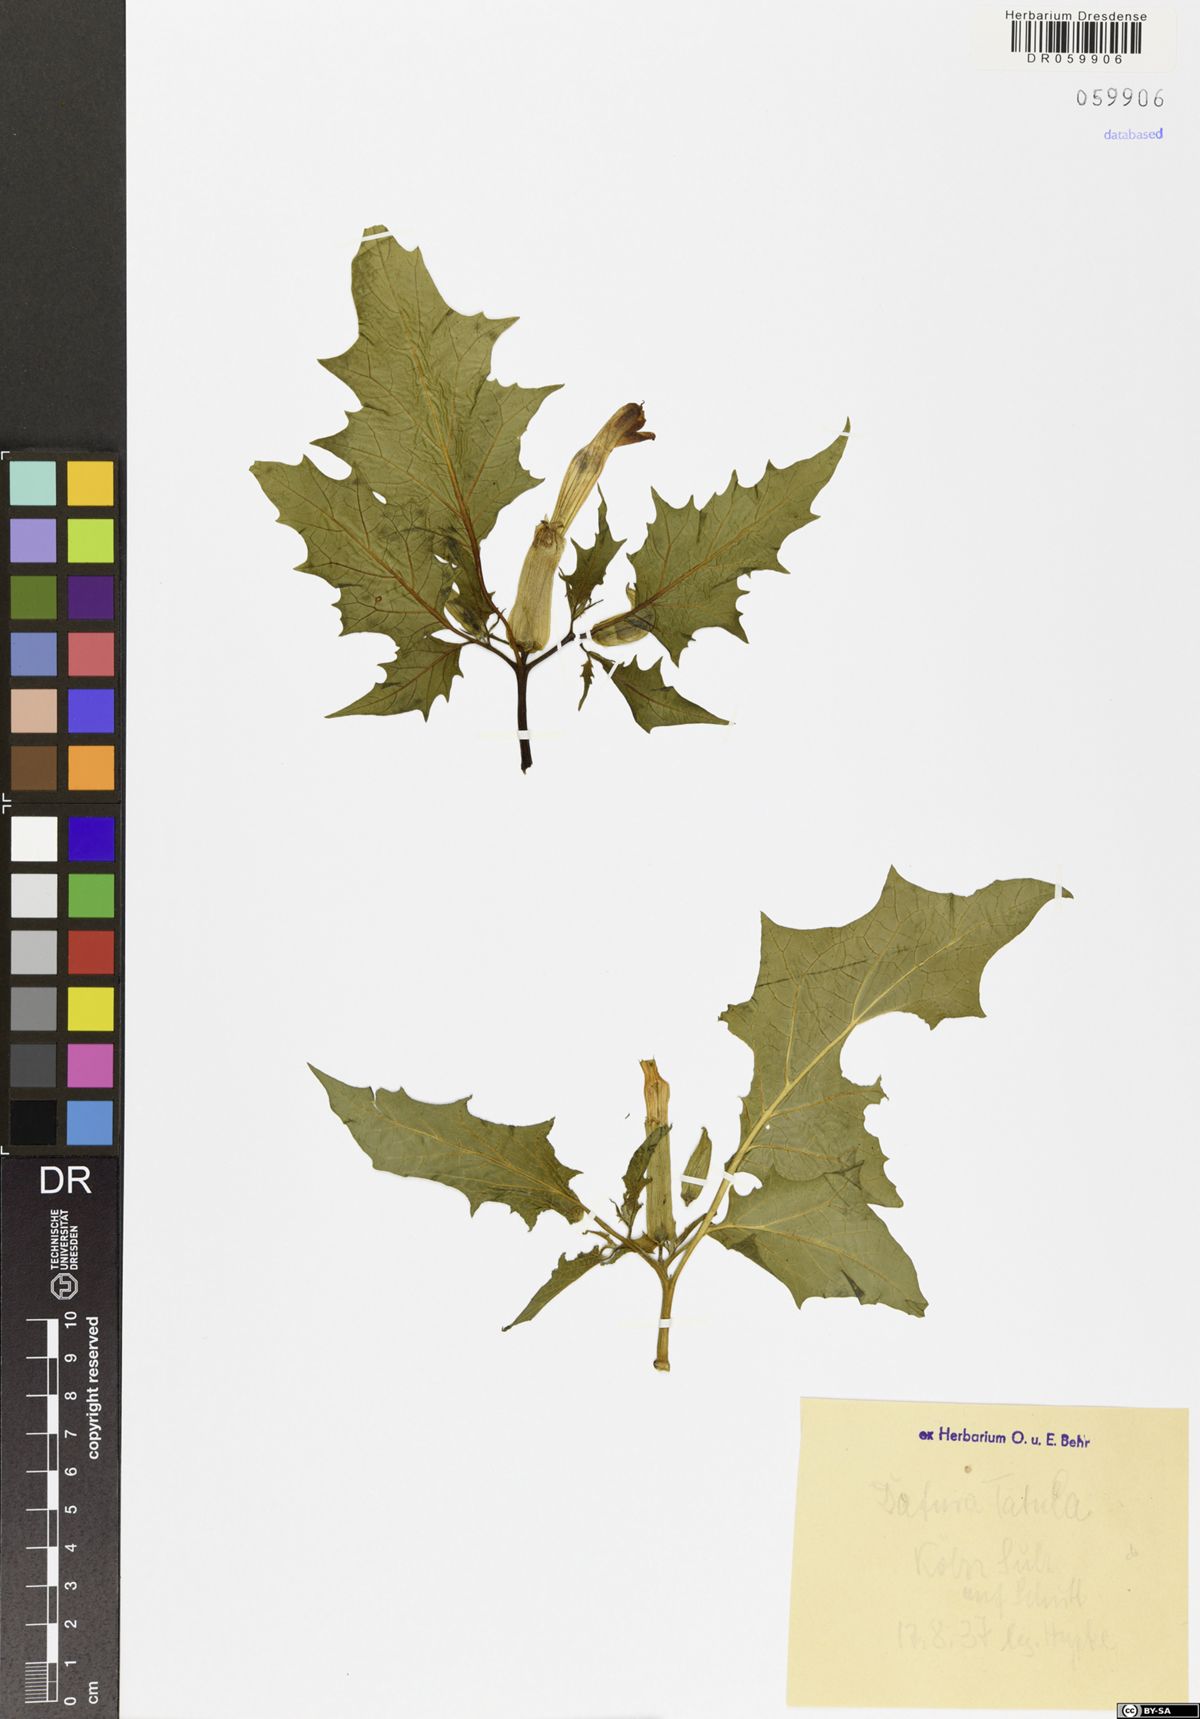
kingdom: Plantae
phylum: Tracheophyta
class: Magnoliopsida
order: Solanales
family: Solanaceae
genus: Datura
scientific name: Datura stramonium
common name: Thorn-apple
